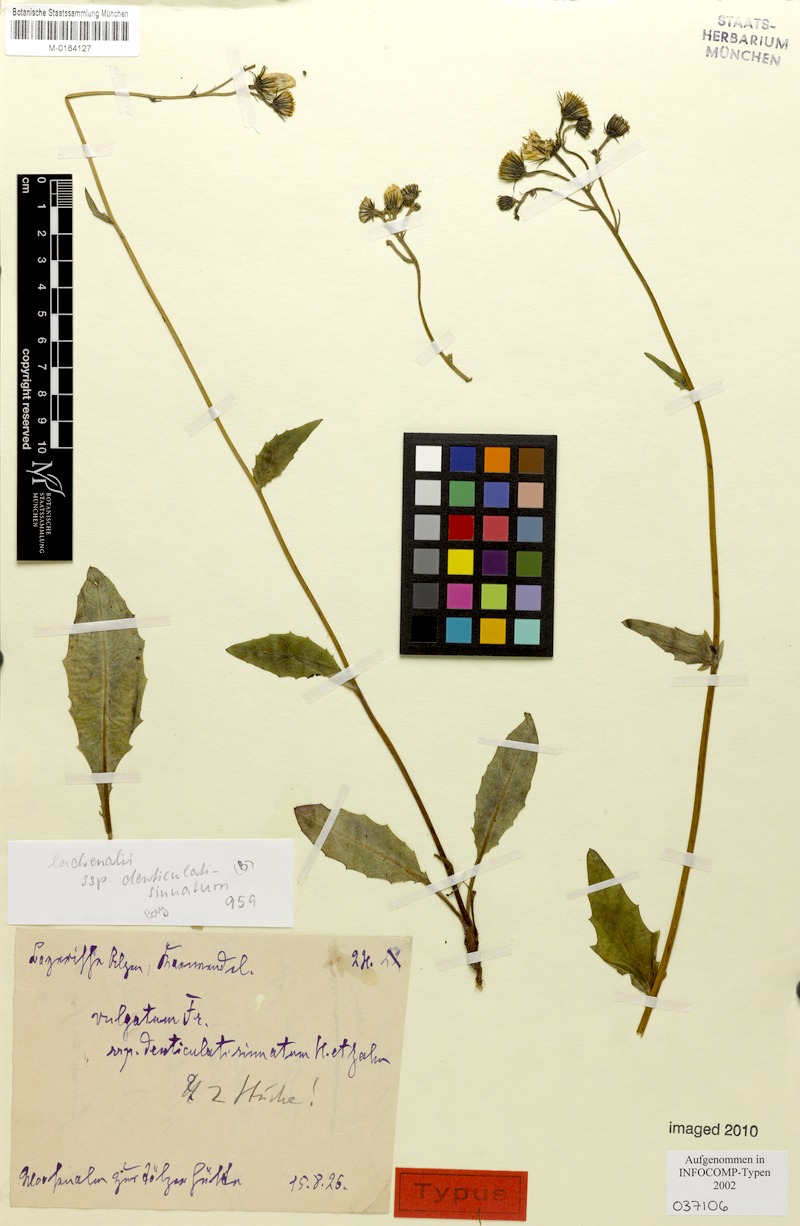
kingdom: Plantae
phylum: Tracheophyta
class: Magnoliopsida
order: Asterales
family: Asteraceae
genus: Hieracium
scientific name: Hieracium lachenalii
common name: Common hawkweed
